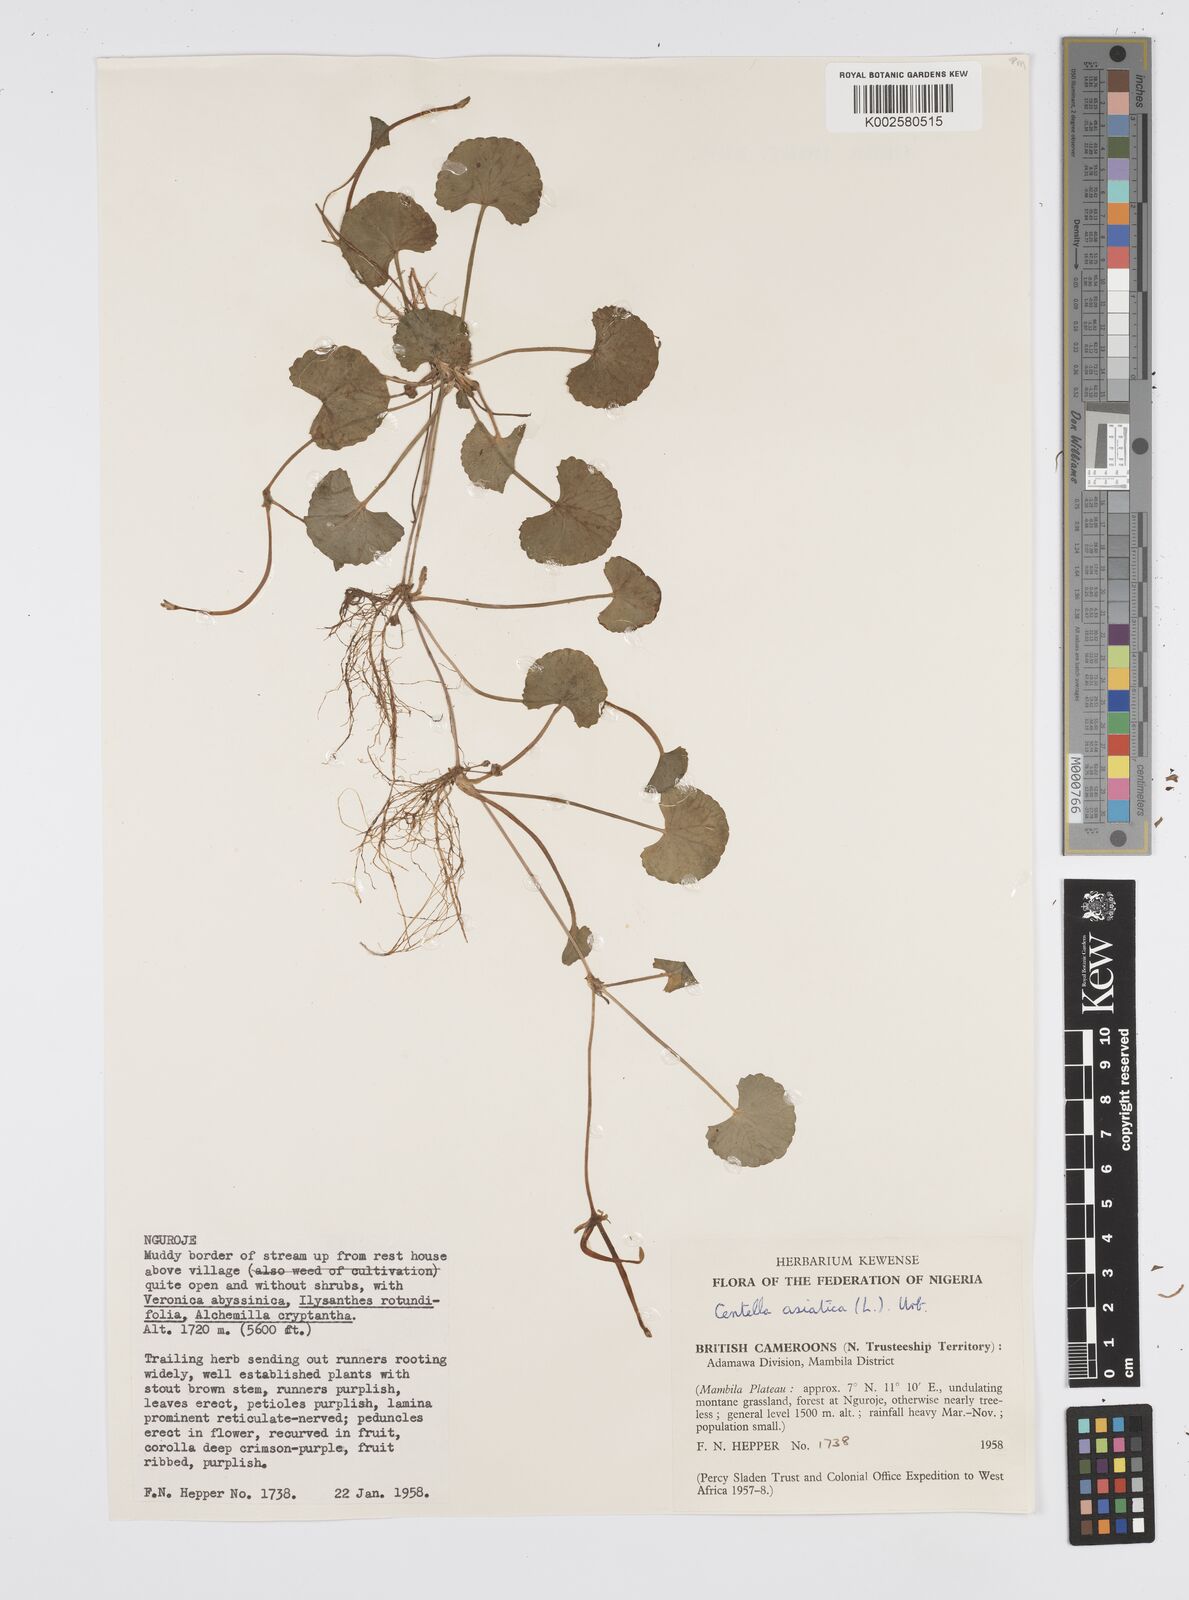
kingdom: Plantae
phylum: Tracheophyta
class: Magnoliopsida
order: Apiales
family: Apiaceae
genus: Centella
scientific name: Centella asiatica
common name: Spadeleaf
